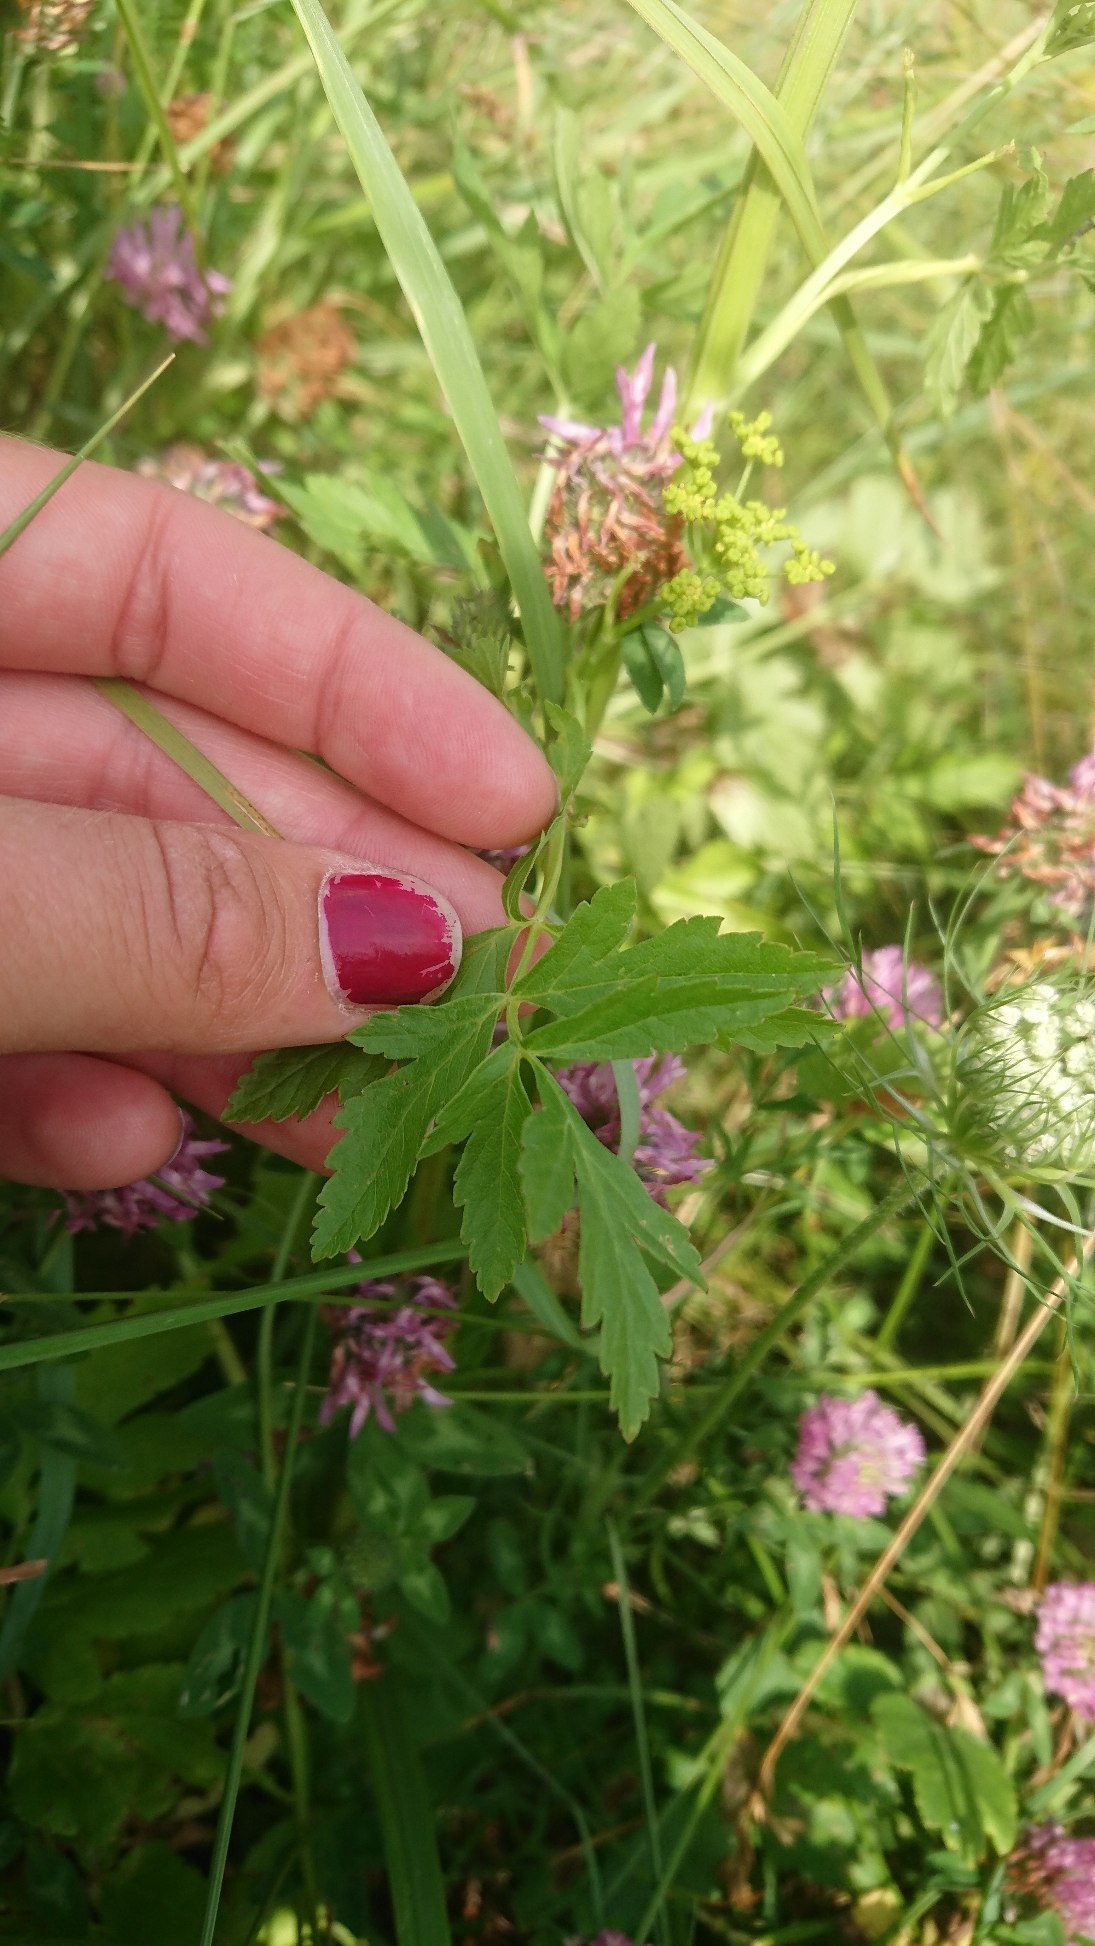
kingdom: Plantae
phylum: Tracheophyta
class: Magnoliopsida
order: Apiales
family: Apiaceae
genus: Pastinaca
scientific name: Pastinaca sativa
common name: Pastinak
